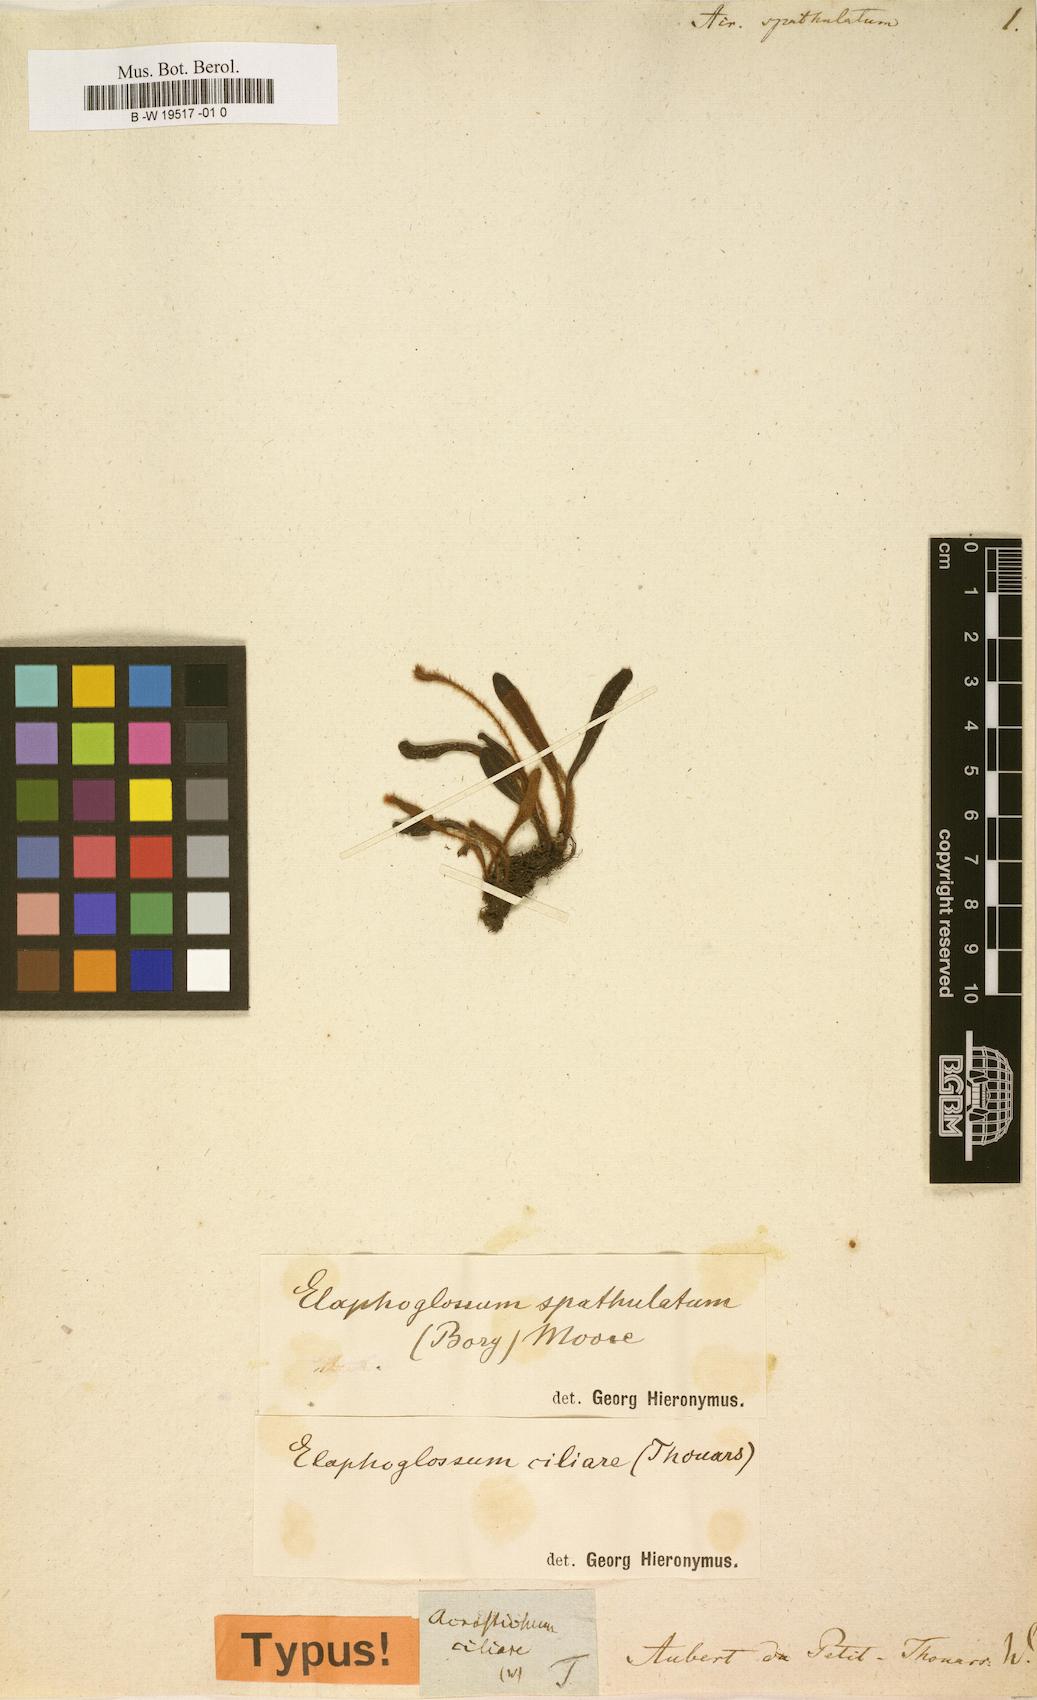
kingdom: Plantae
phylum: Tracheophyta
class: Polypodiopsida
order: Polypodiales
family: Dryopteridaceae
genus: Elaphoglossum
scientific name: Elaphoglossum spatulatum
